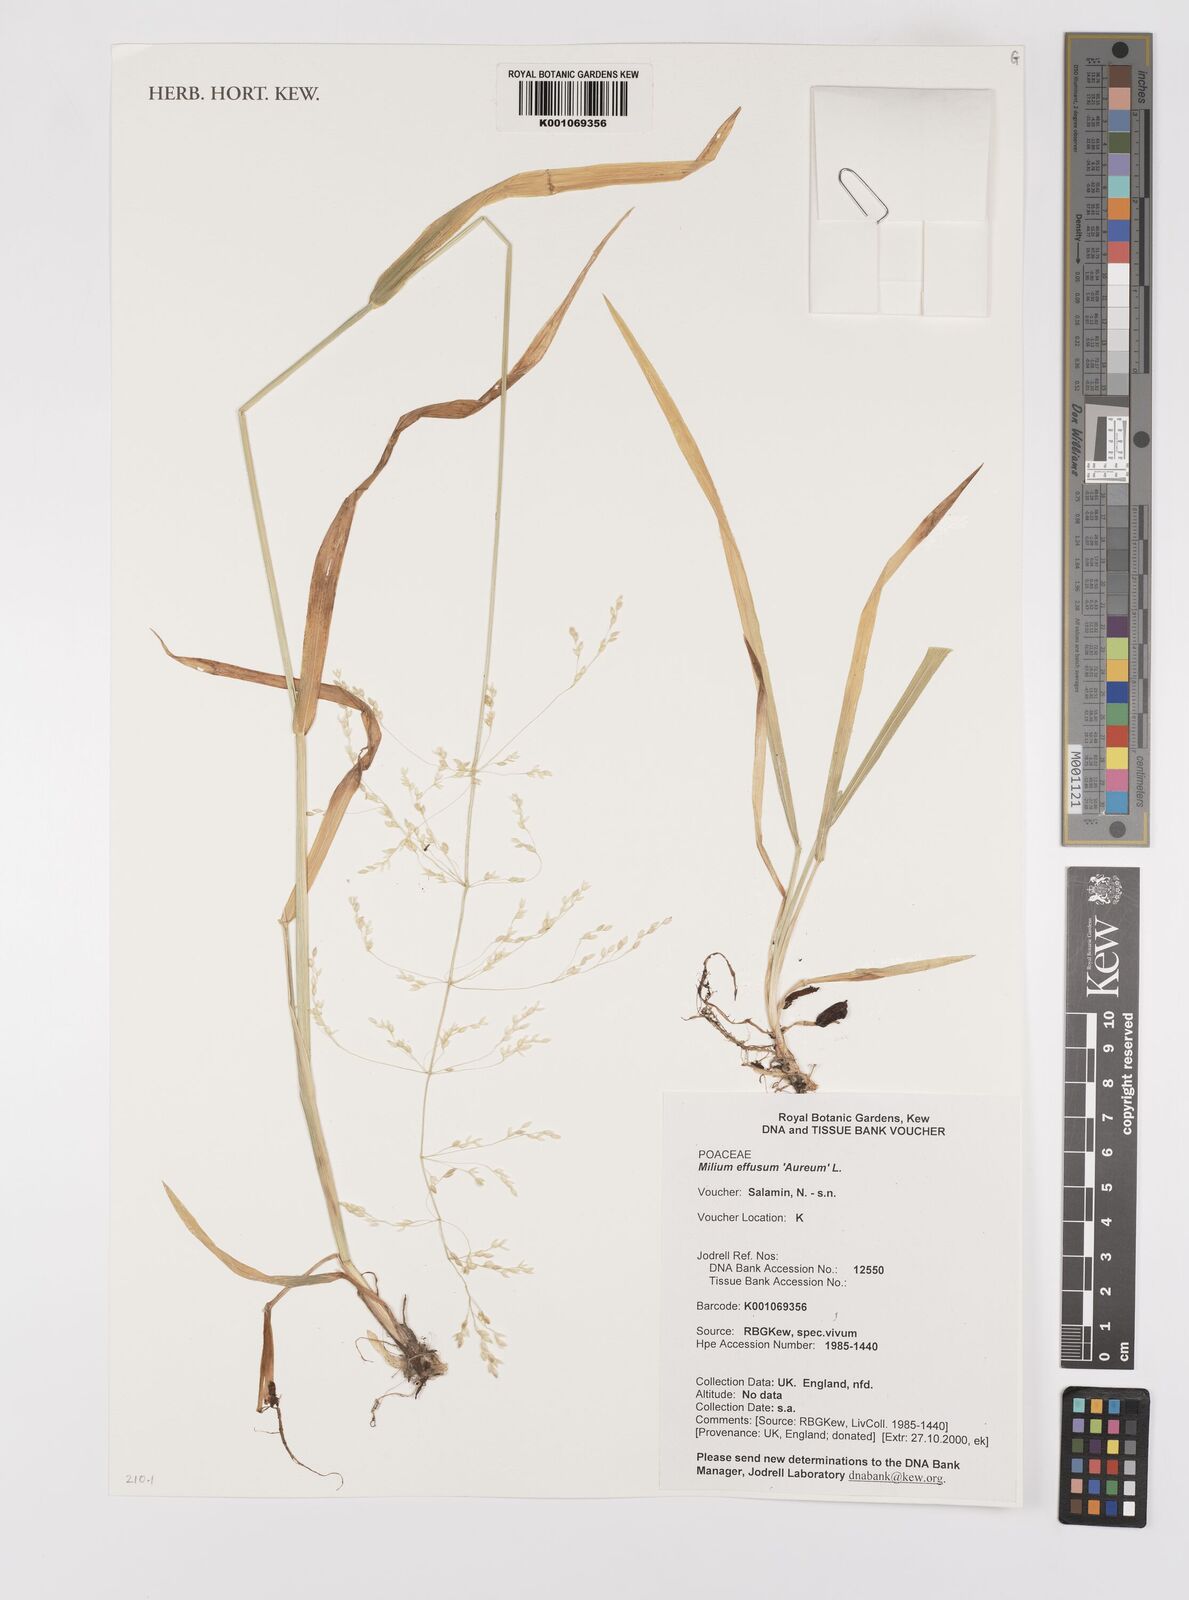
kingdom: Plantae
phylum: Tracheophyta
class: Liliopsida
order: Poales
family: Poaceae
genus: Milium
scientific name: Milium effusum
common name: Wood millet
